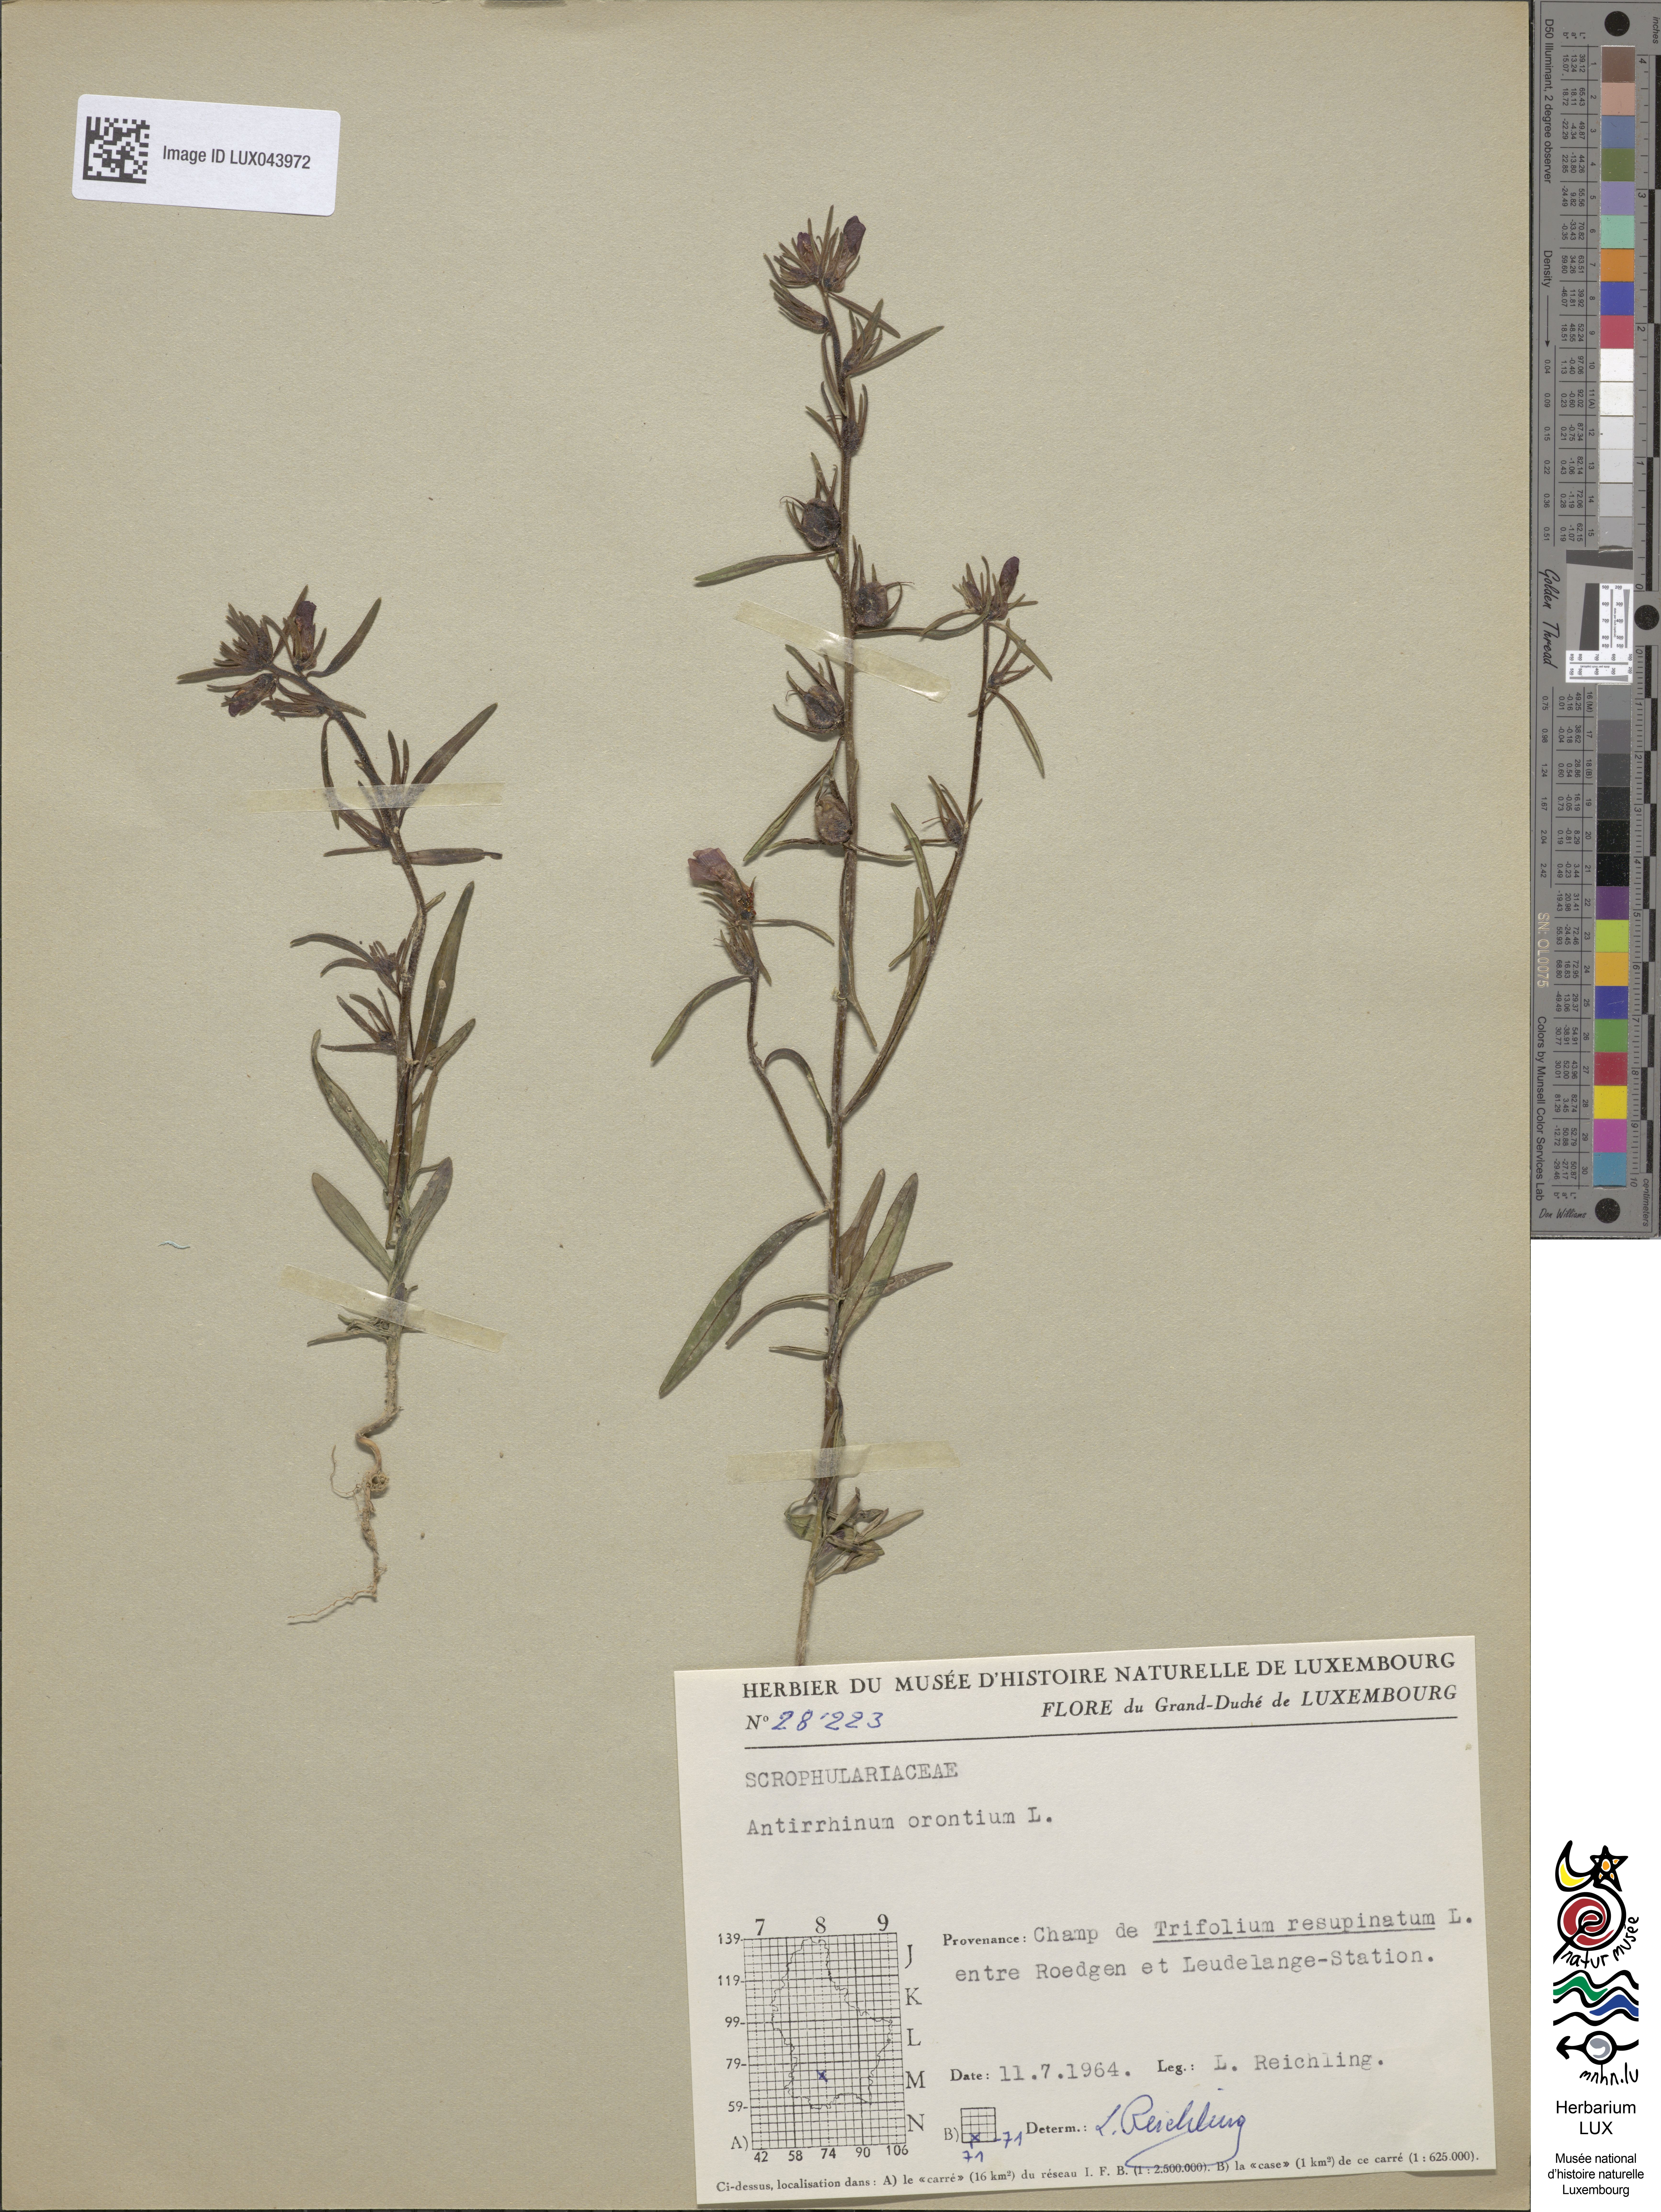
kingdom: Plantae
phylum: Tracheophyta
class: Magnoliopsida
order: Lamiales
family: Plantaginaceae
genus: Misopates
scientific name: Misopates orontium
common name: Weasel's-snout
